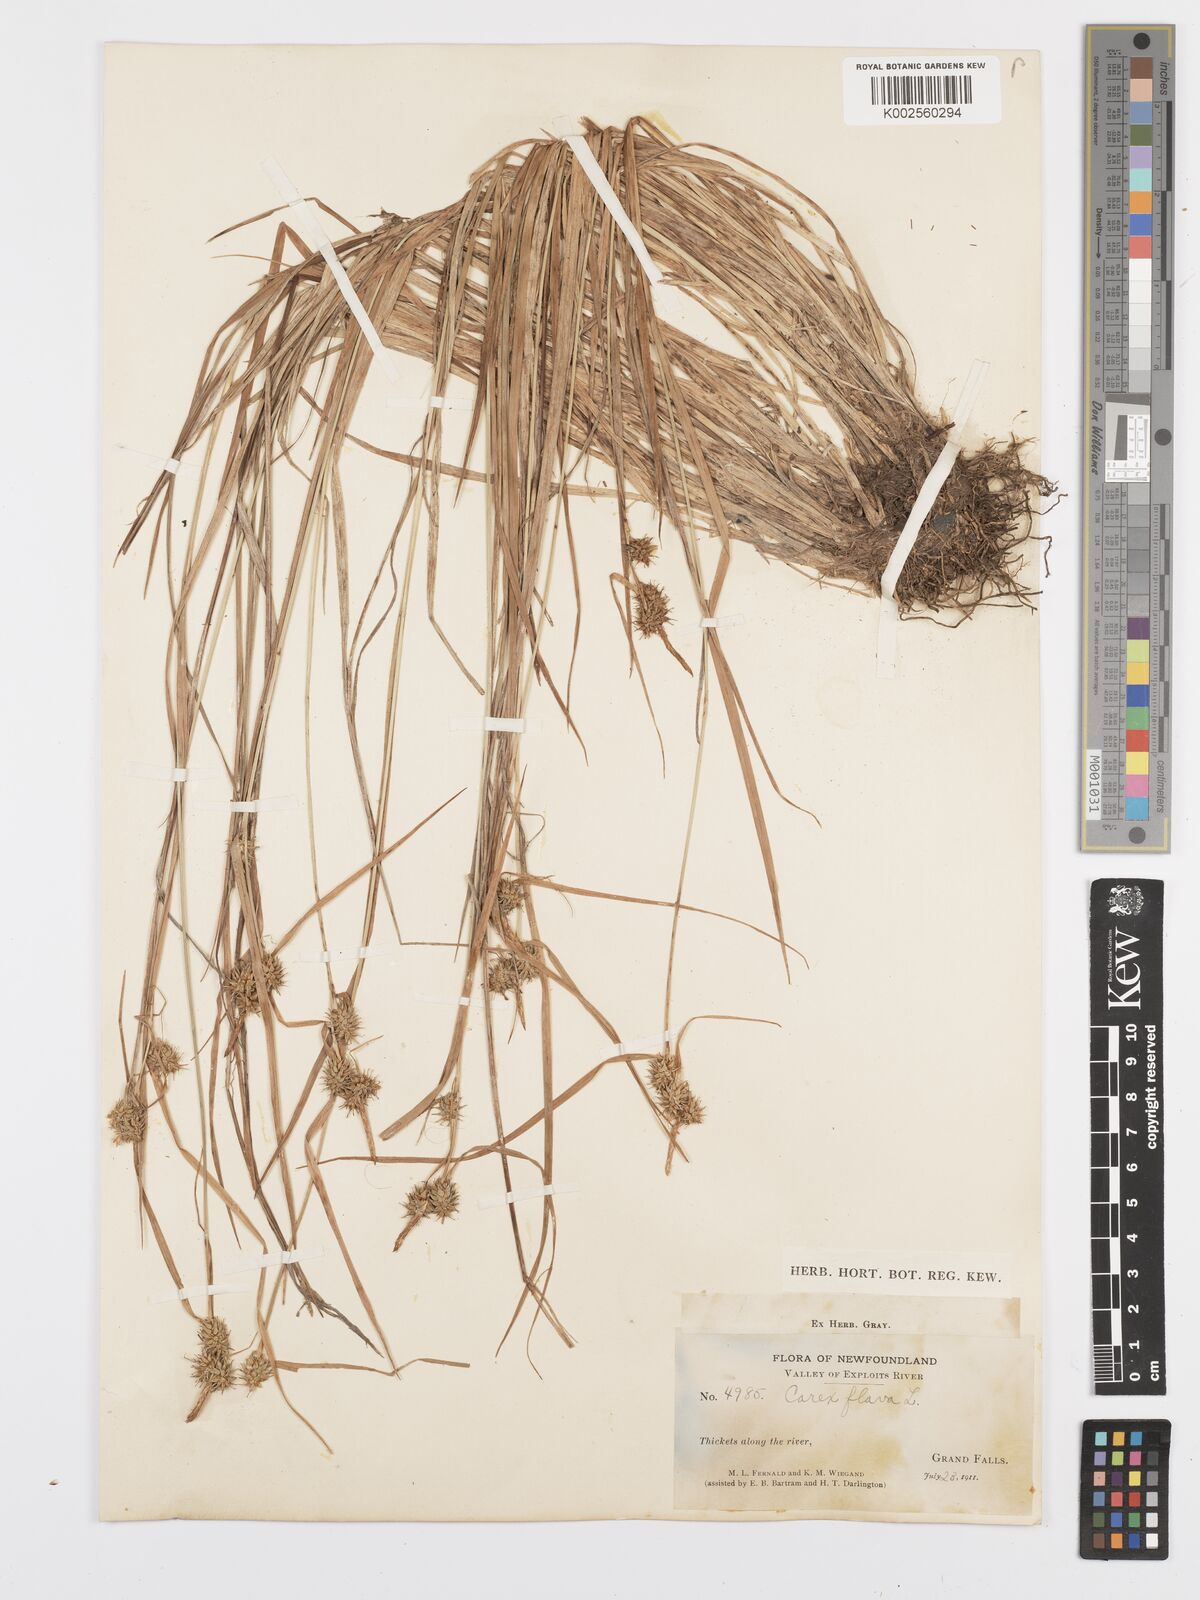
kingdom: Plantae
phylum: Tracheophyta
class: Liliopsida
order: Poales
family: Cyperaceae
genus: Carex
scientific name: Carex flava
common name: Large yellow-sedge
